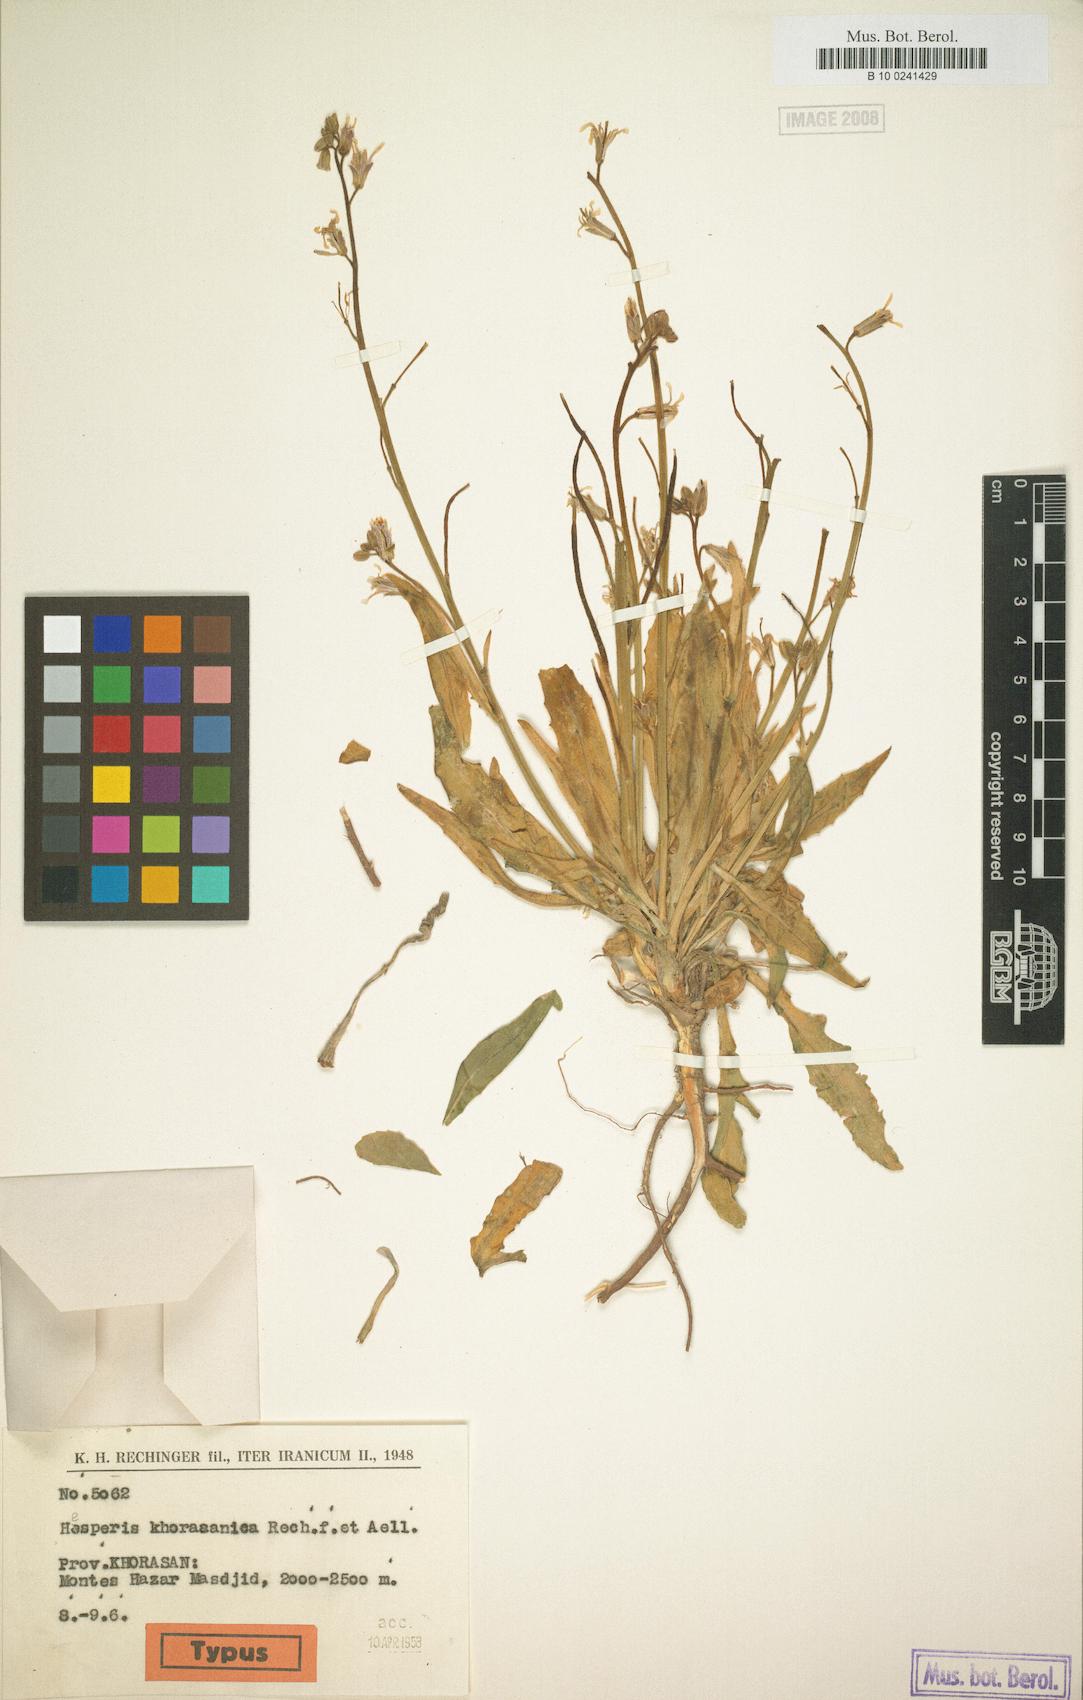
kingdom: Plantae
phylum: Tracheophyta
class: Magnoliopsida
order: Brassicales
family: Brassicaceae
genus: Parrya
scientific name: Parrya khorasanica
